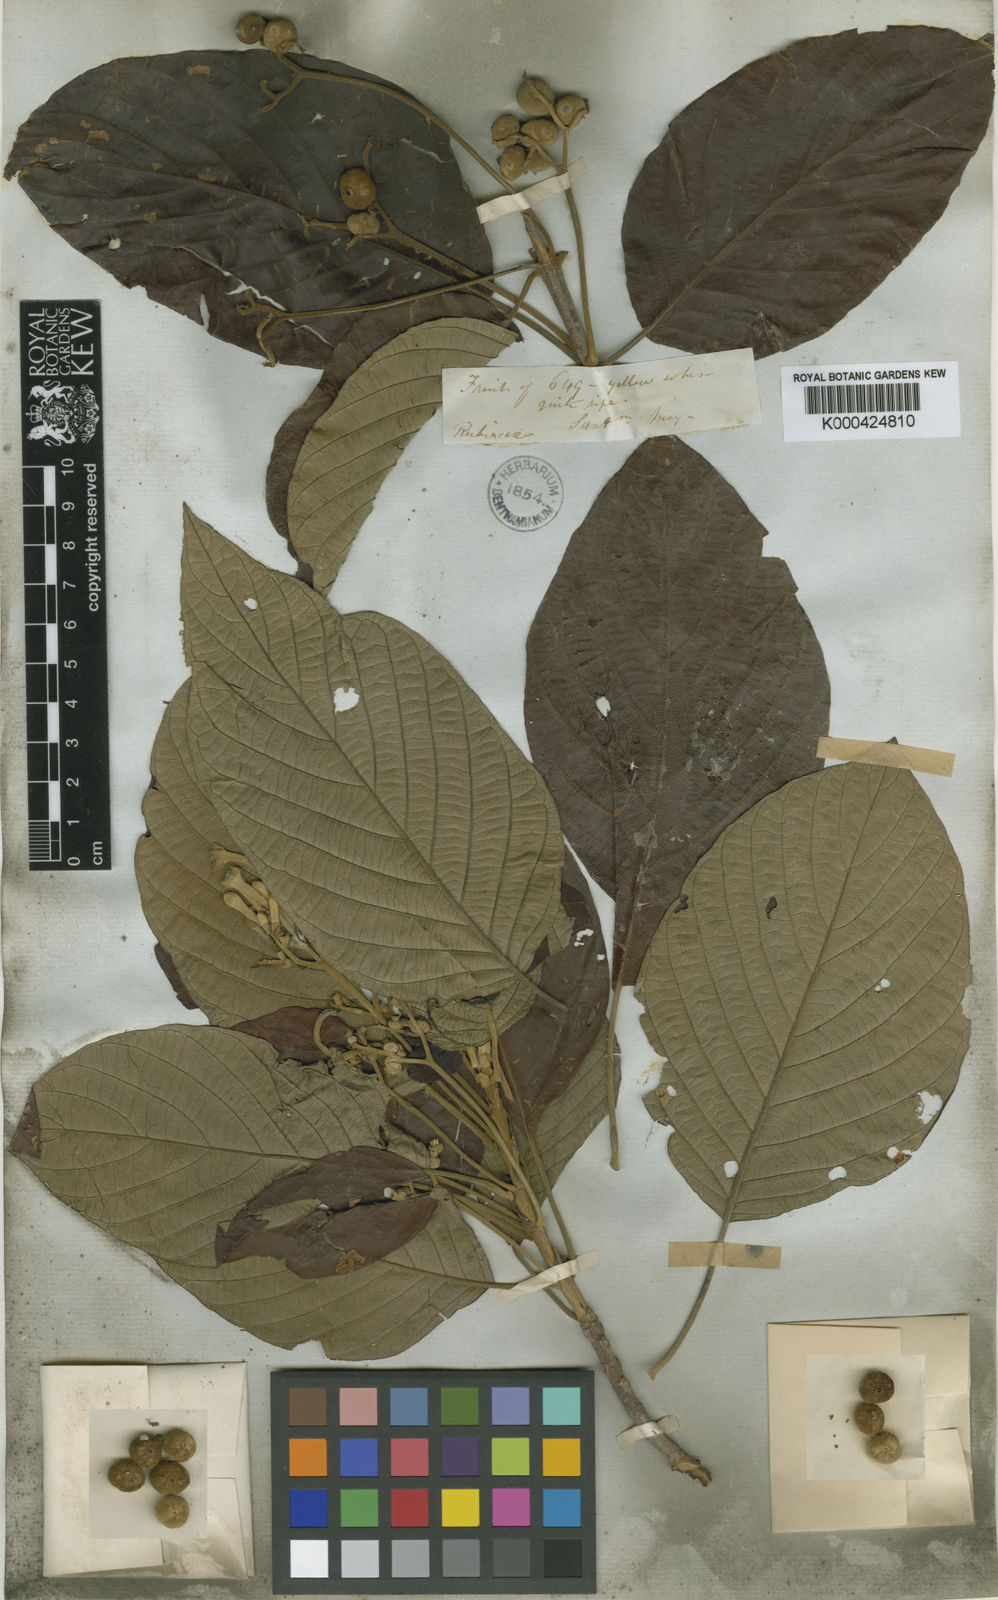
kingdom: Plantae
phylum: Tracheophyta
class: Magnoliopsida
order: Gentianales
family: Rubiaceae
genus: Guettarda
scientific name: Guettarda
